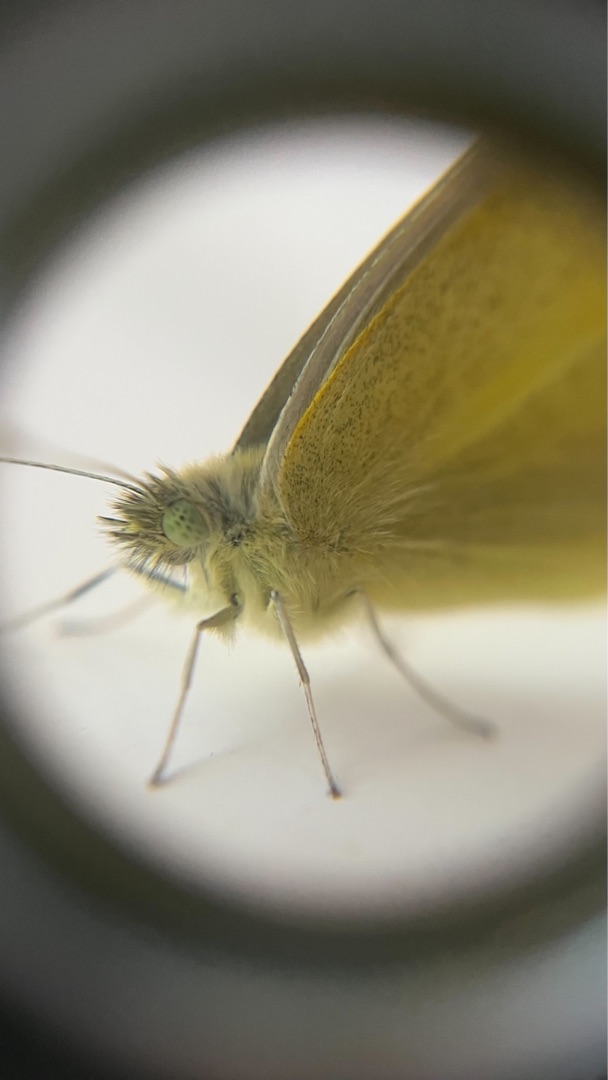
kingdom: Animalia
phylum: Arthropoda
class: Insecta
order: Lepidoptera
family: Pieridae
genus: Pieris
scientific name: Pieris rapae
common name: Lille kålsommerfugl
